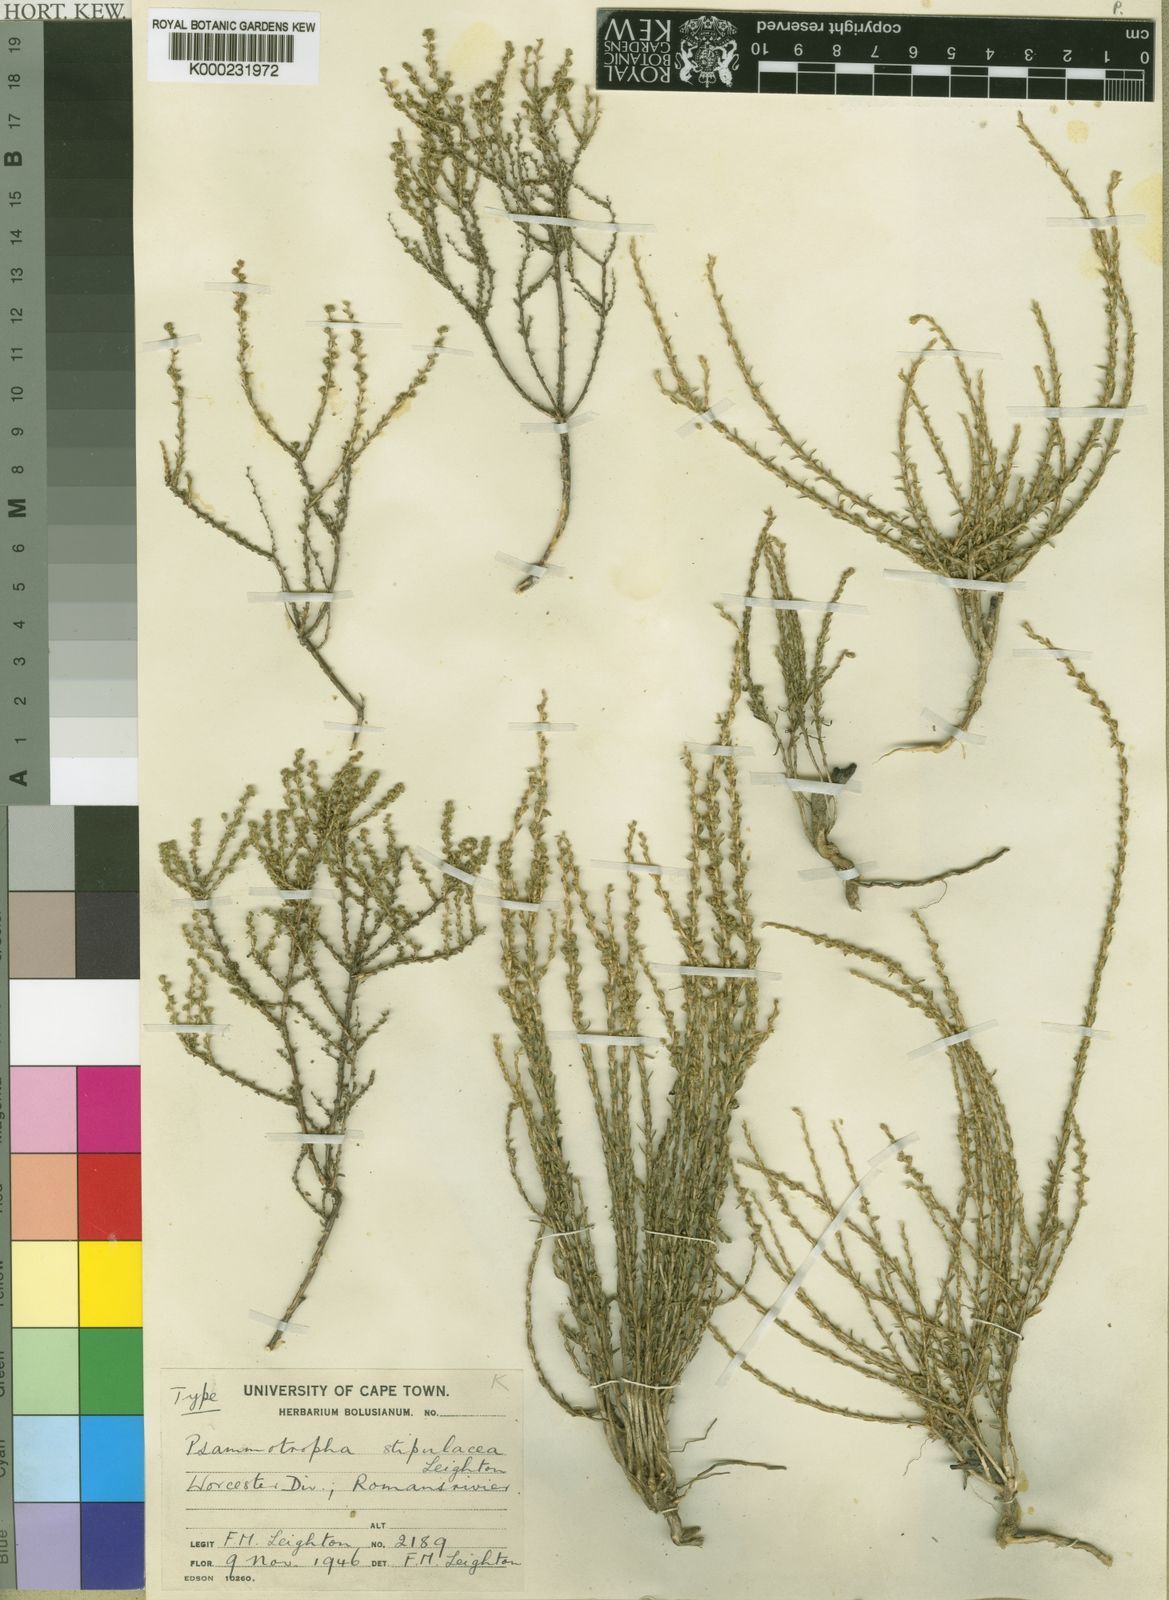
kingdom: Plantae
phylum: Tracheophyta
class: Magnoliopsida
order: Caryophyllales
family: Molluginaceae
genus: Polpoda
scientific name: Polpoda stipulacea
